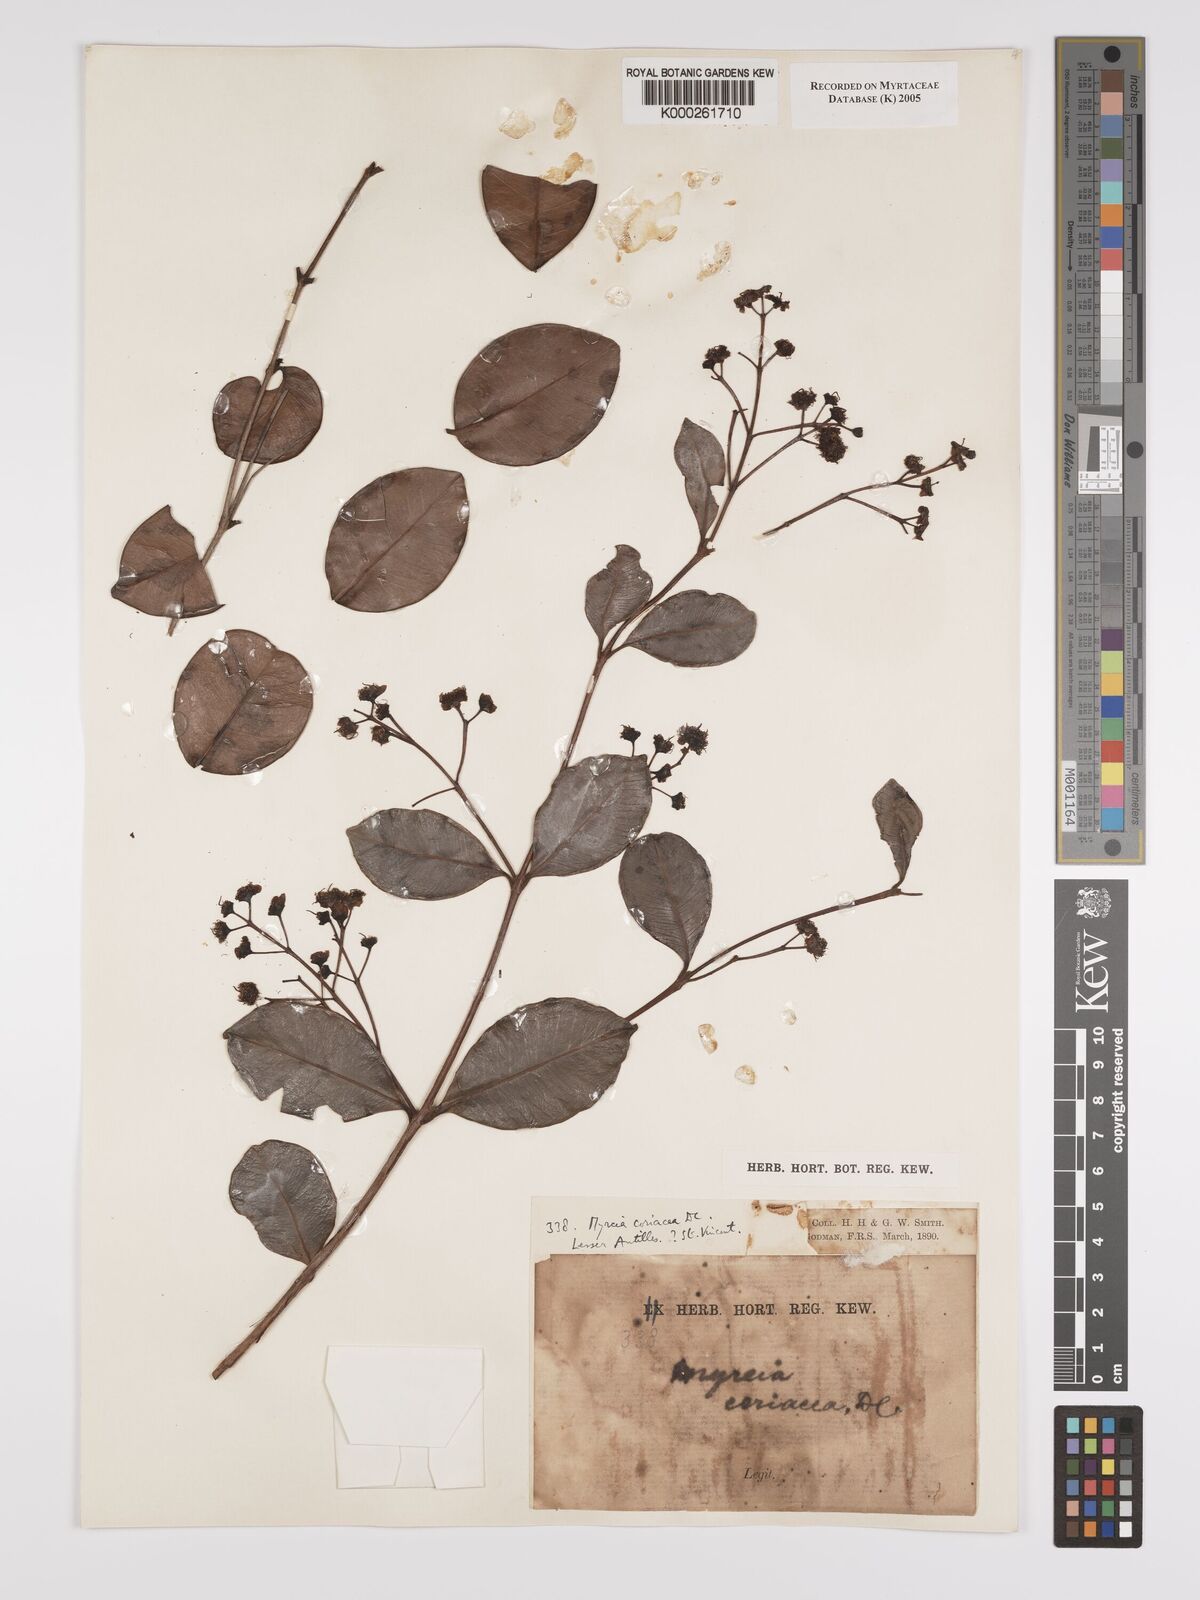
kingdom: Plantae
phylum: Tracheophyta
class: Magnoliopsida
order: Myrtales
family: Myrtaceae
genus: Myrcia
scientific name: Myrcia guianensis
